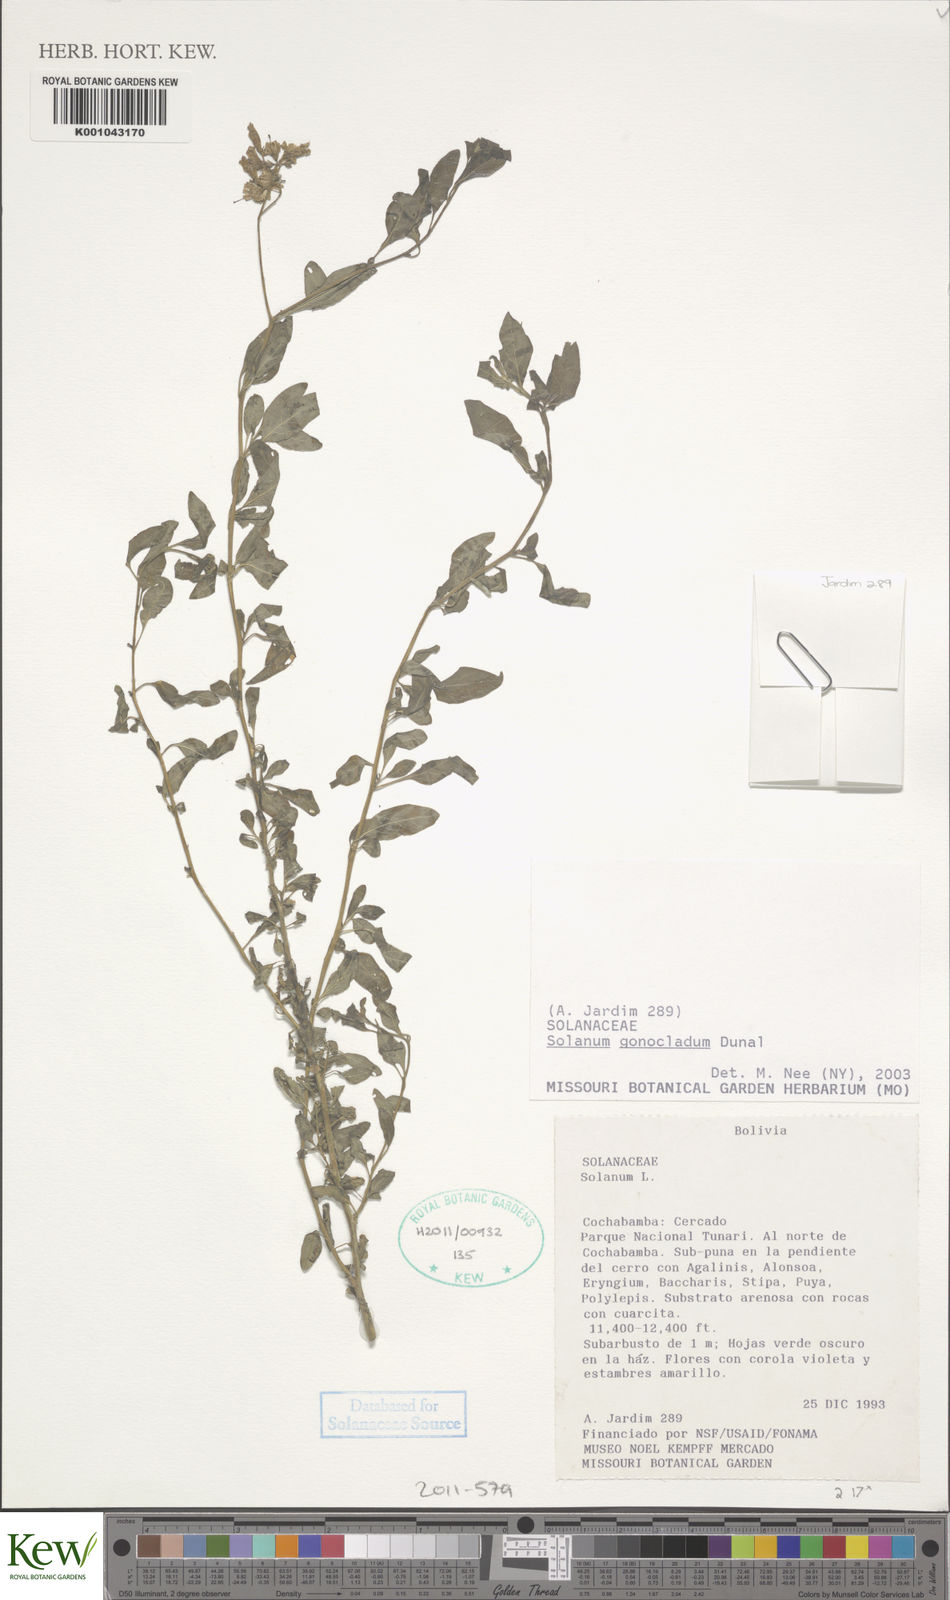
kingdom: Plantae
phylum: Tracheophyta
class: Magnoliopsida
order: Solanales
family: Solanaceae
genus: Solanum
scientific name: Solanum gonocladum
